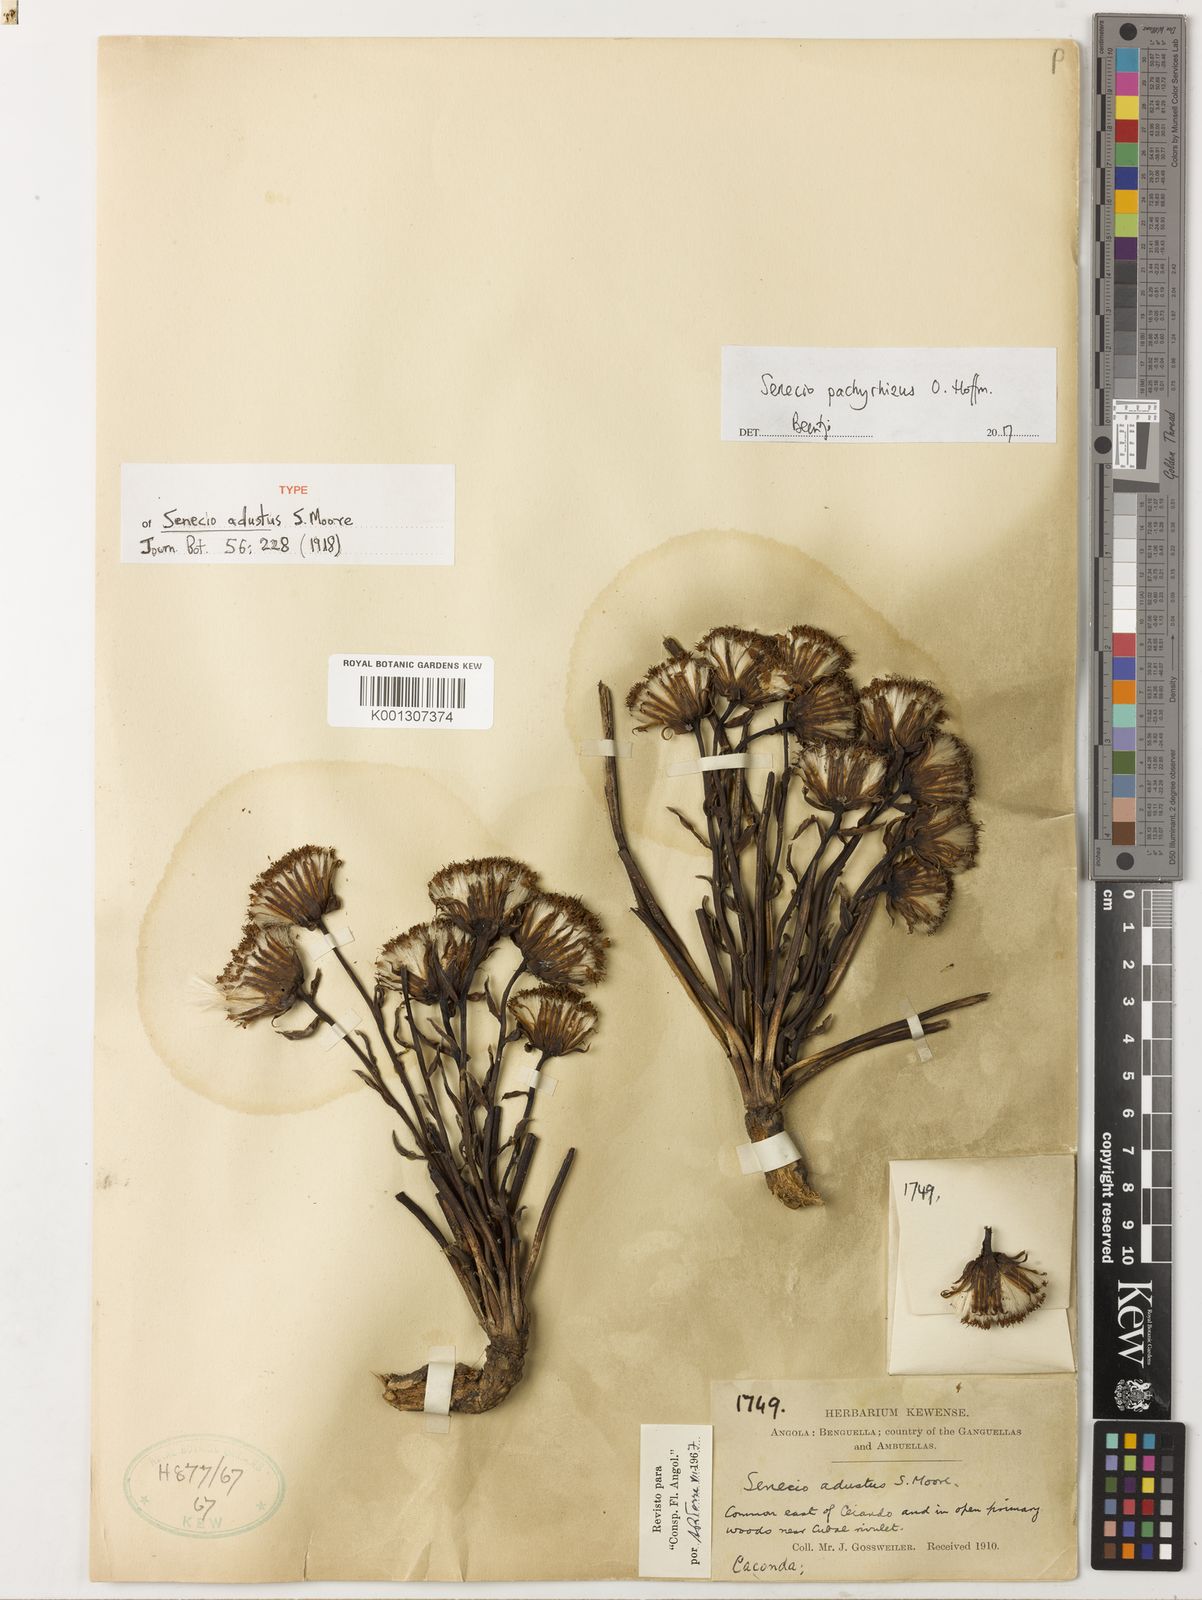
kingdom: Plantae
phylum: Tracheophyta
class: Magnoliopsida
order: Asterales
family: Asteraceae
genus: Senecio
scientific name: Senecio pachyrhizus
